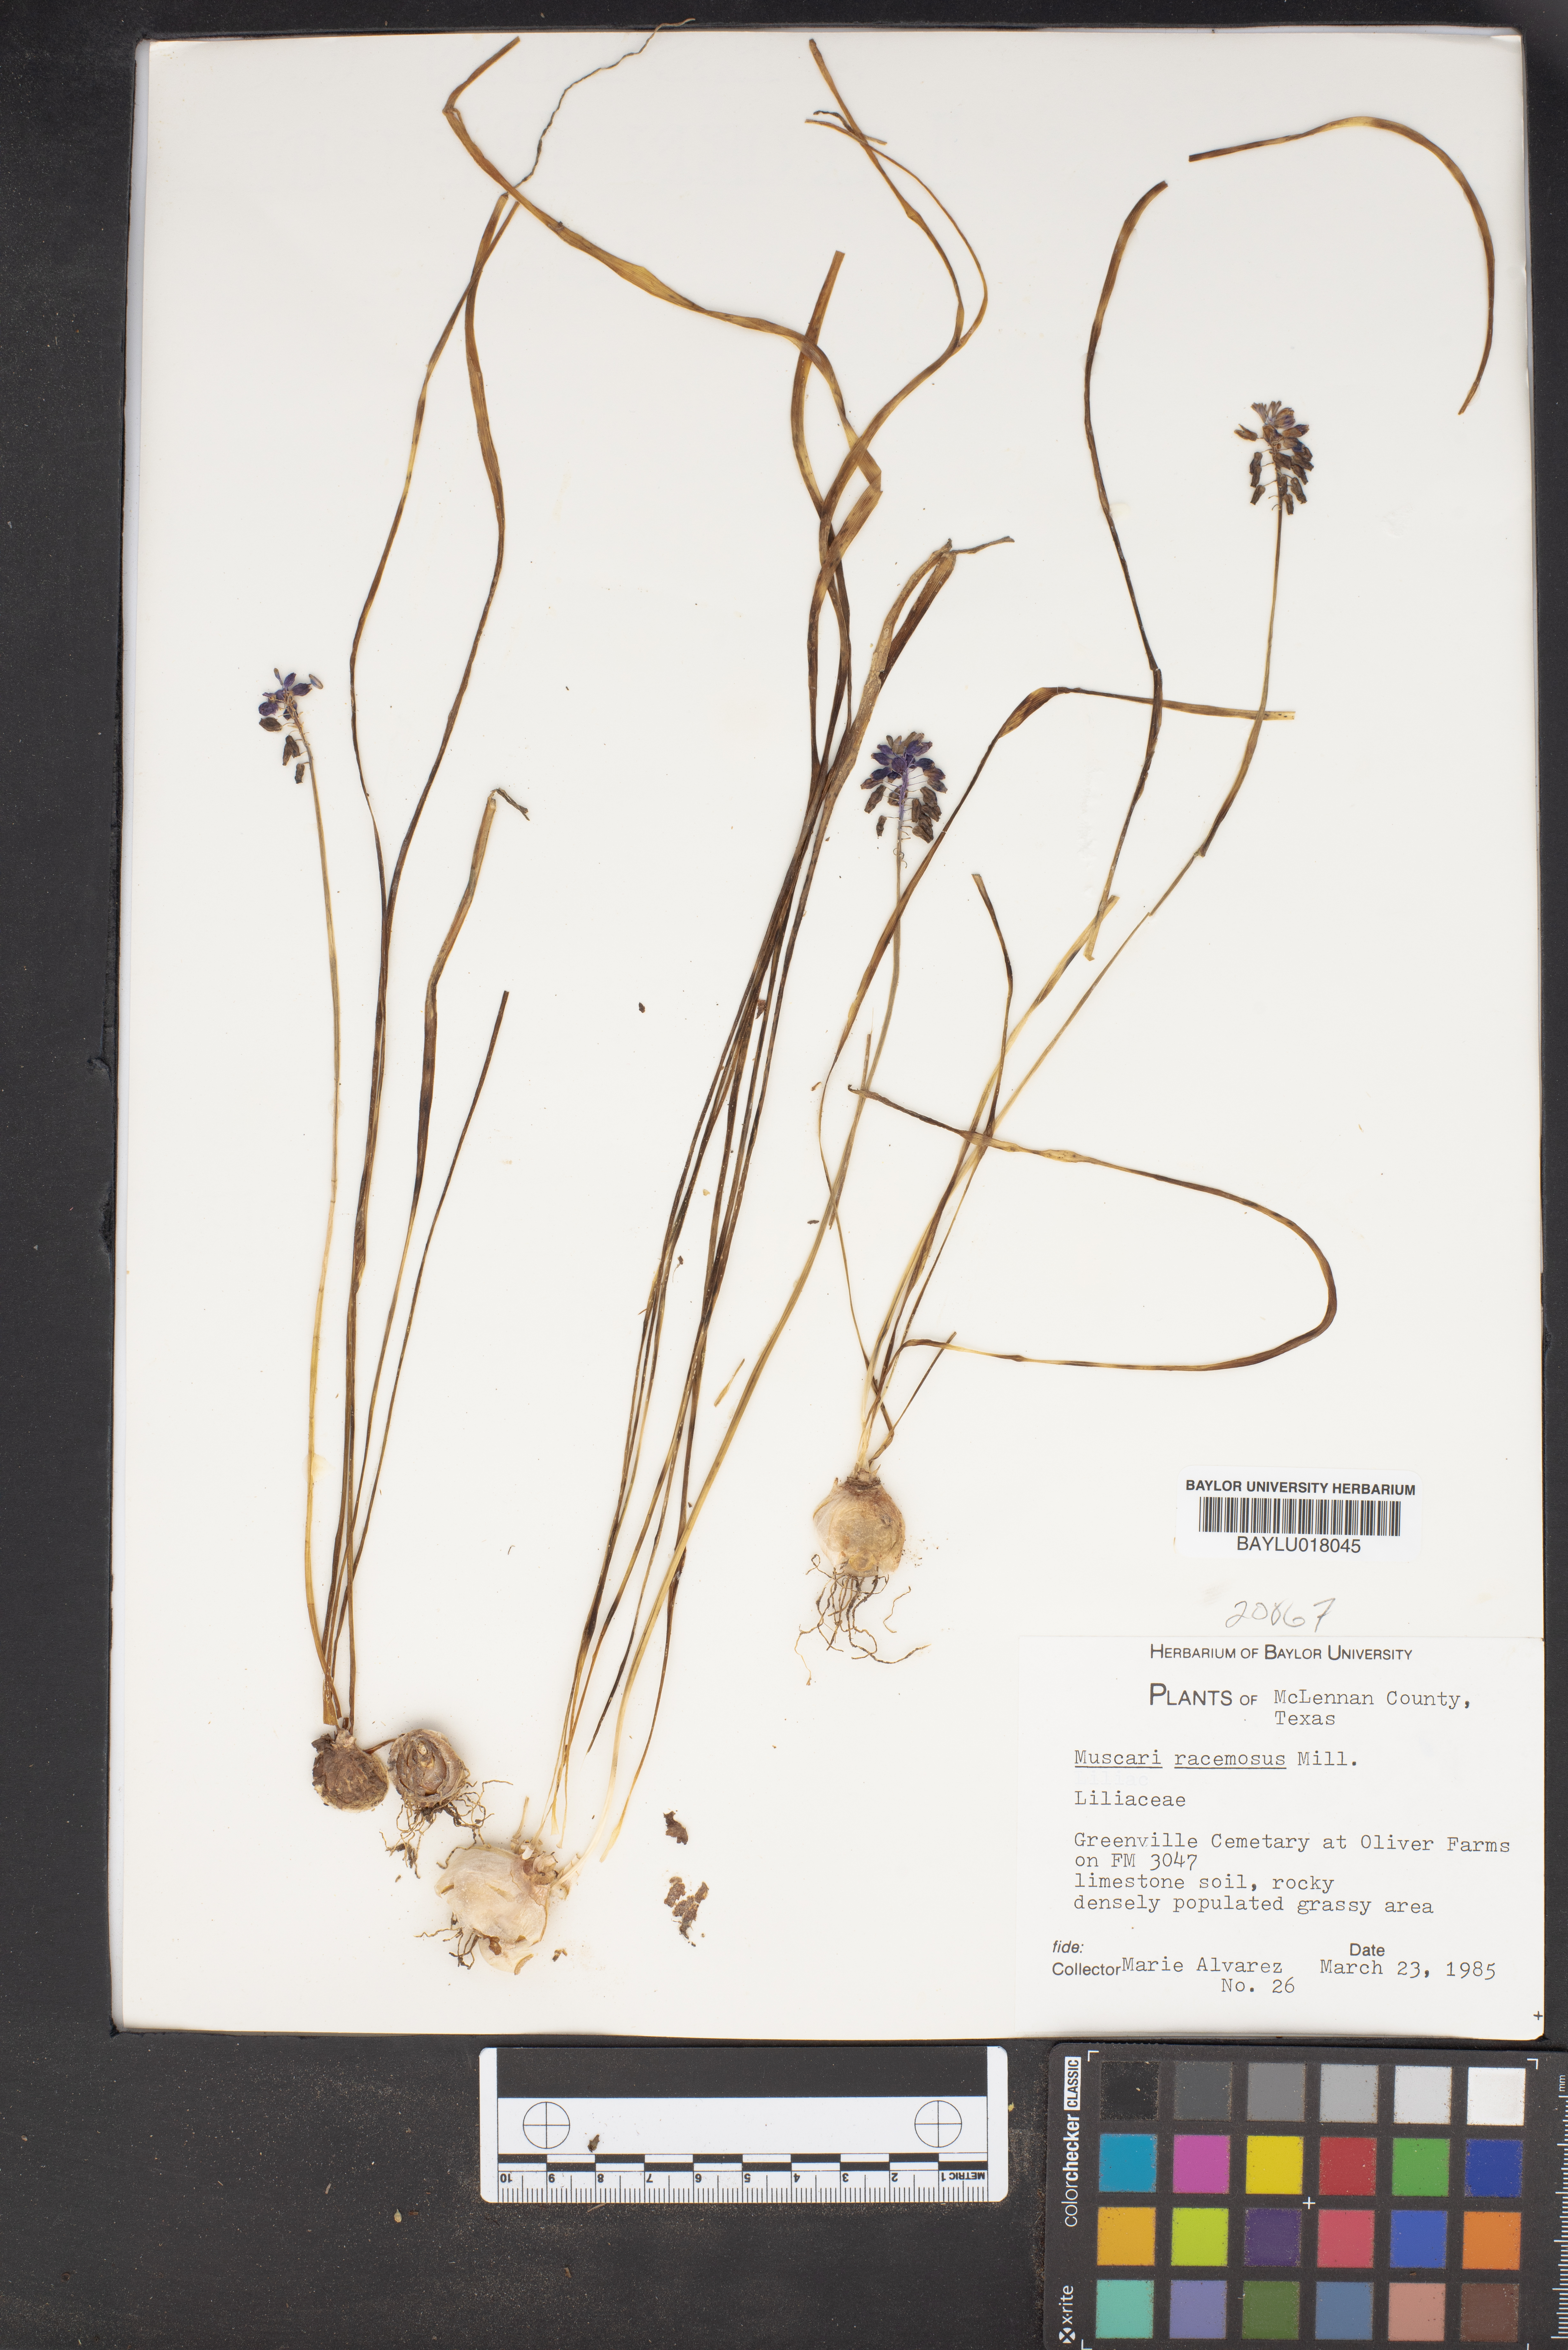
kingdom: Plantae
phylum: Tracheophyta
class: Liliopsida
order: Asparagales
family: Asparagaceae
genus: Muscarimia
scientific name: Muscarimia muscari
